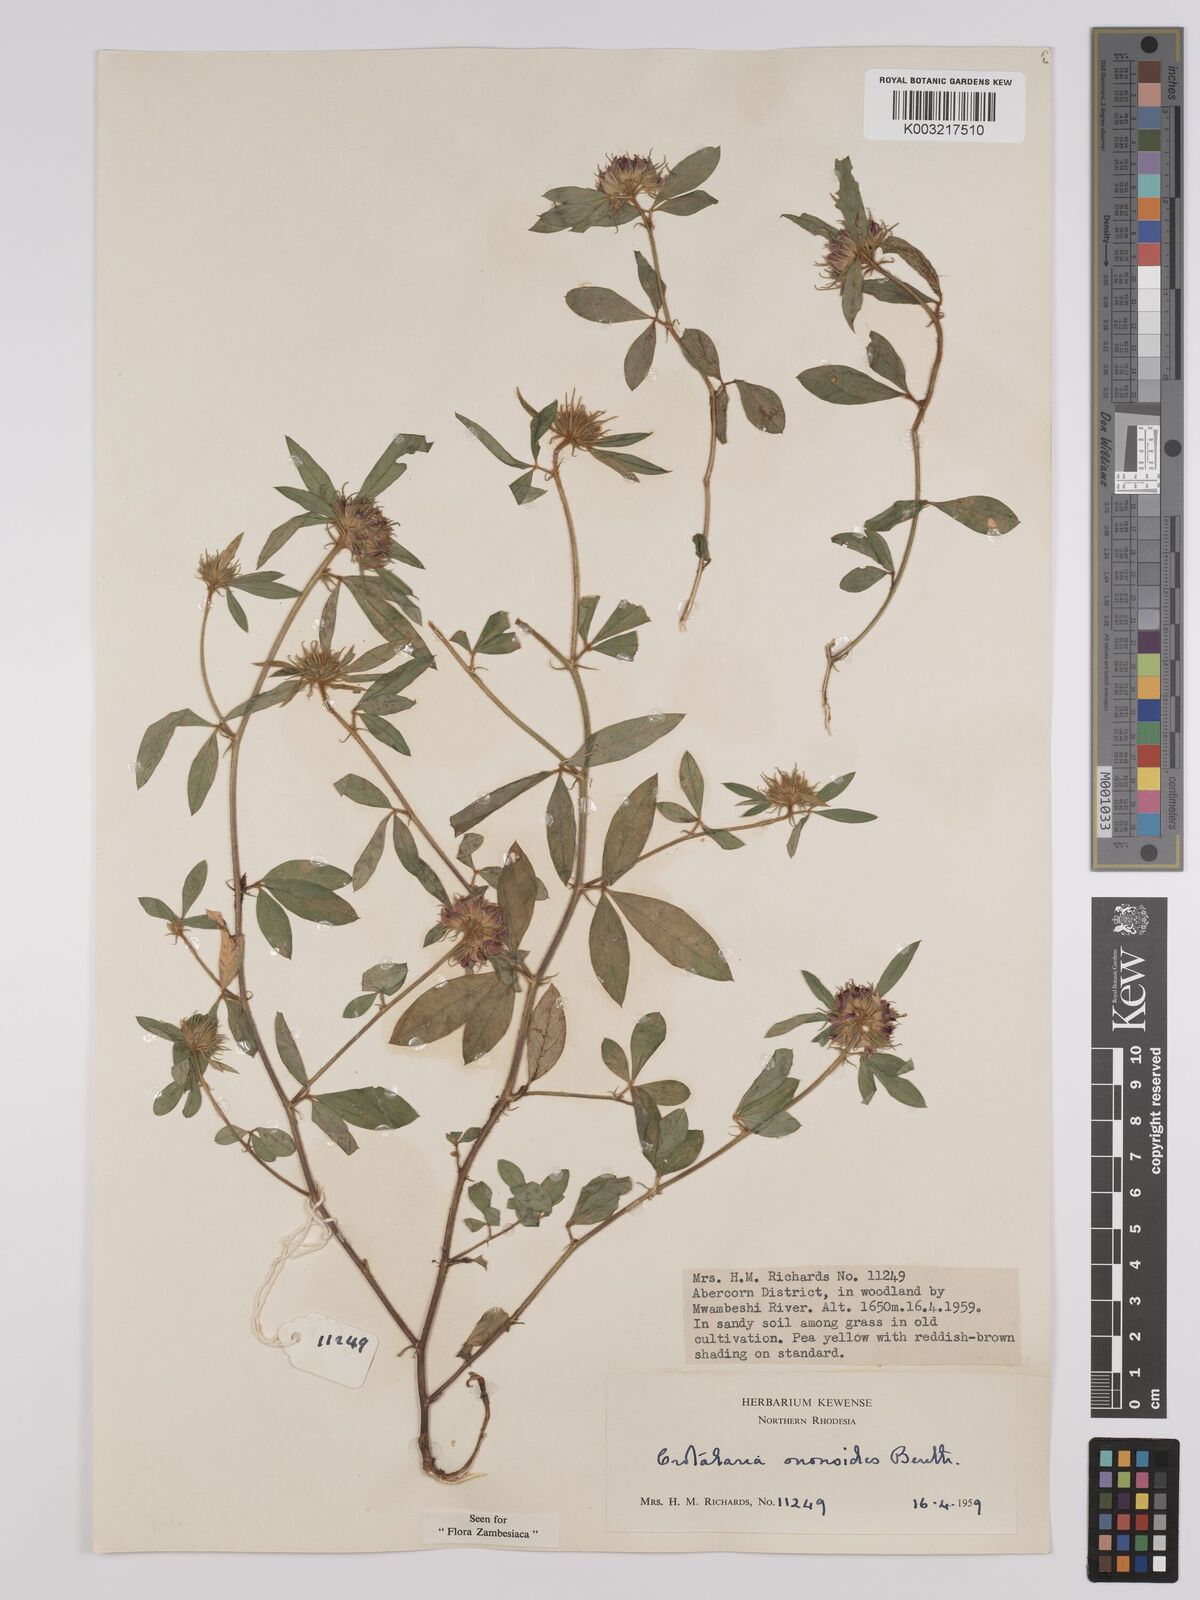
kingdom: Plantae
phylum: Tracheophyta
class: Magnoliopsida
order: Fabales
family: Fabaceae
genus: Crotalaria
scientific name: Crotalaria ononoides
